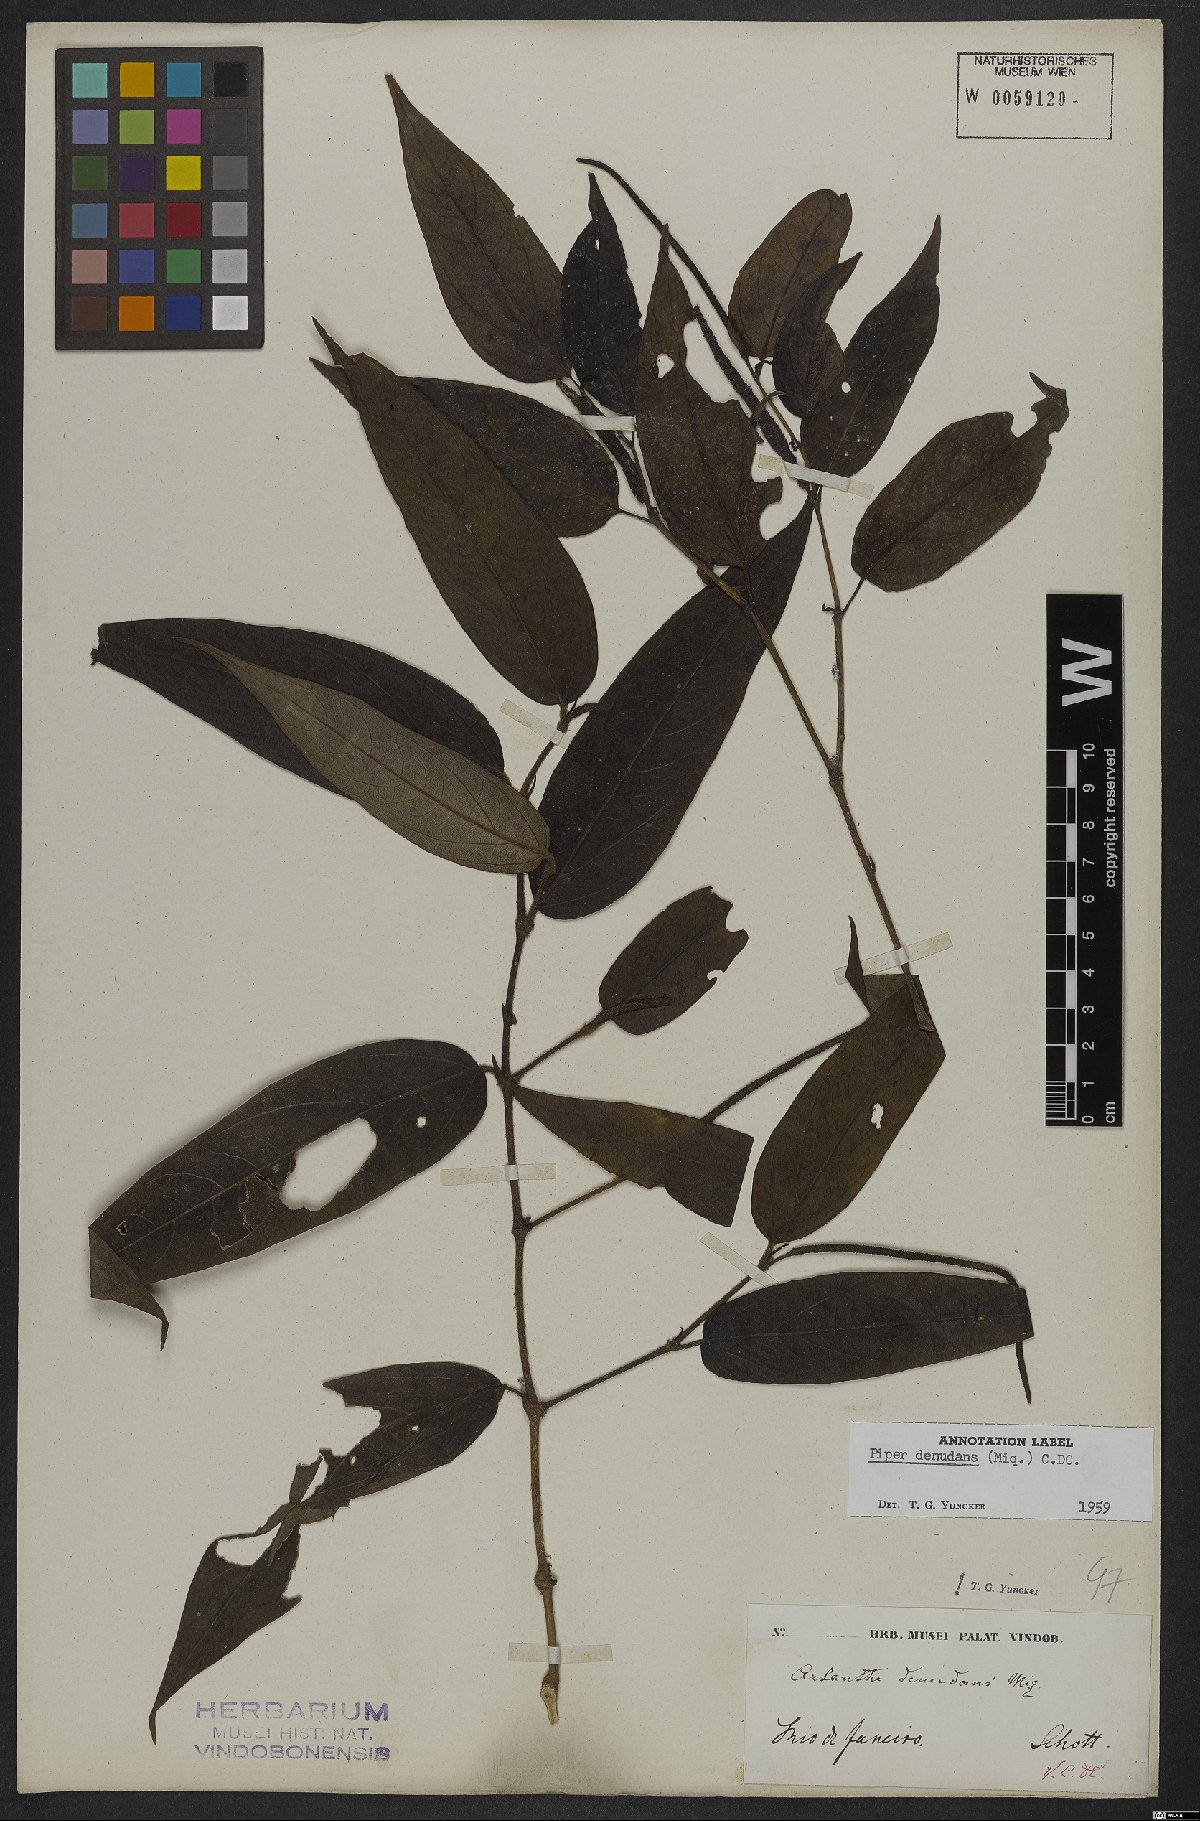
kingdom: Plantae
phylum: Tracheophyta
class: Magnoliopsida
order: Piperales
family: Piperaceae
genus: Piper
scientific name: Piper lepturum
